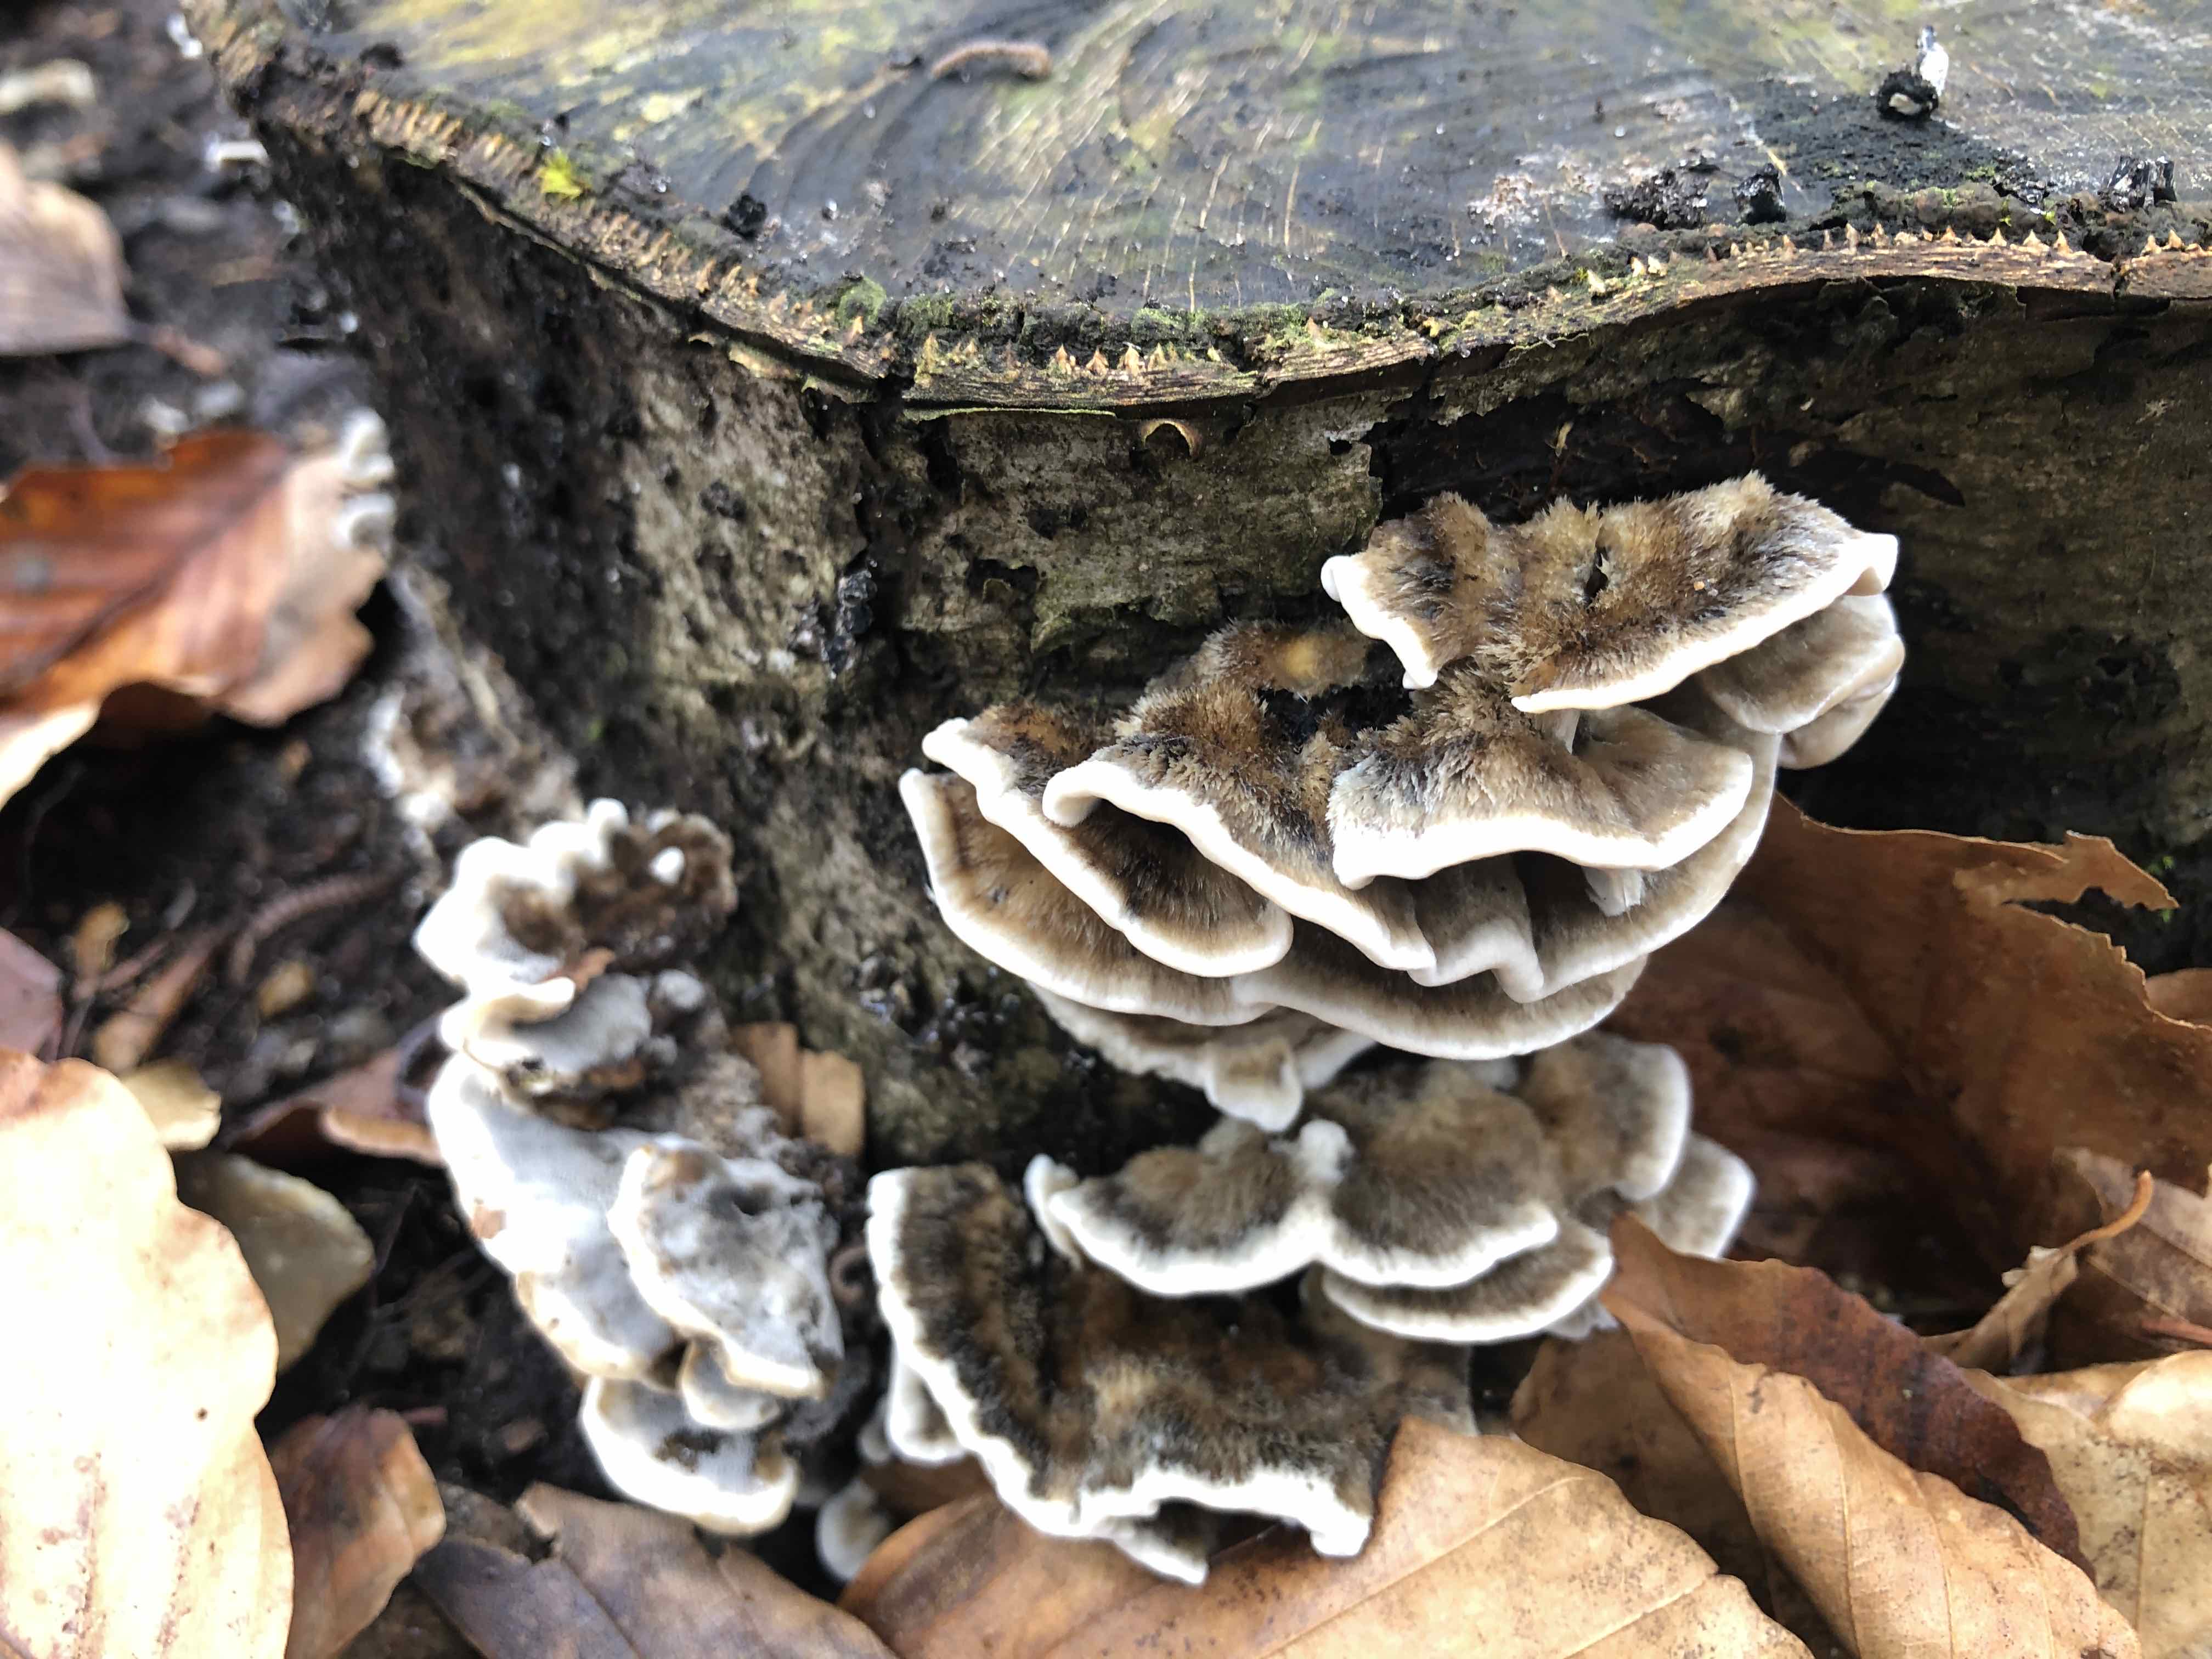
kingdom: Fungi
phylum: Basidiomycota
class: Agaricomycetes
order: Polyporales
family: Phanerochaetaceae
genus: Bjerkandera
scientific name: Bjerkandera adusta
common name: sveden sodporesvamp
